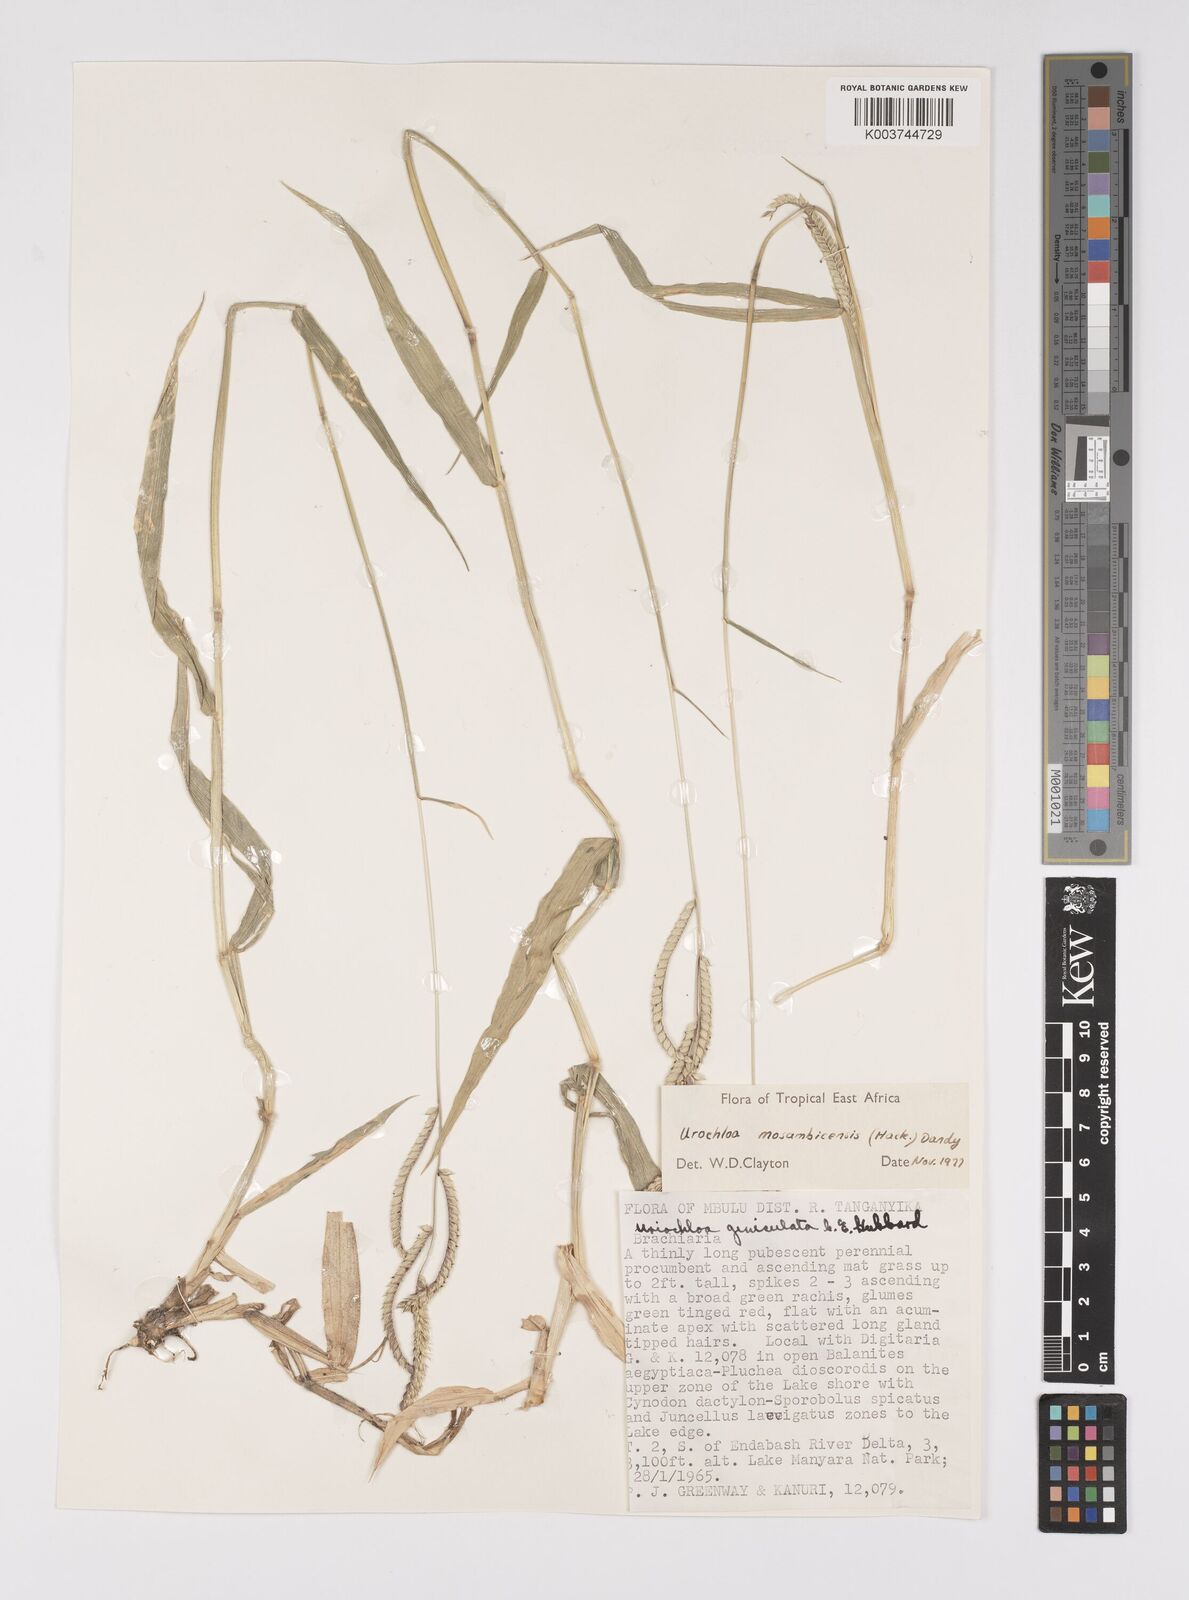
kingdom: Plantae
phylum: Tracheophyta
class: Liliopsida
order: Poales
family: Poaceae
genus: Urochloa
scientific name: Urochloa trichopus
